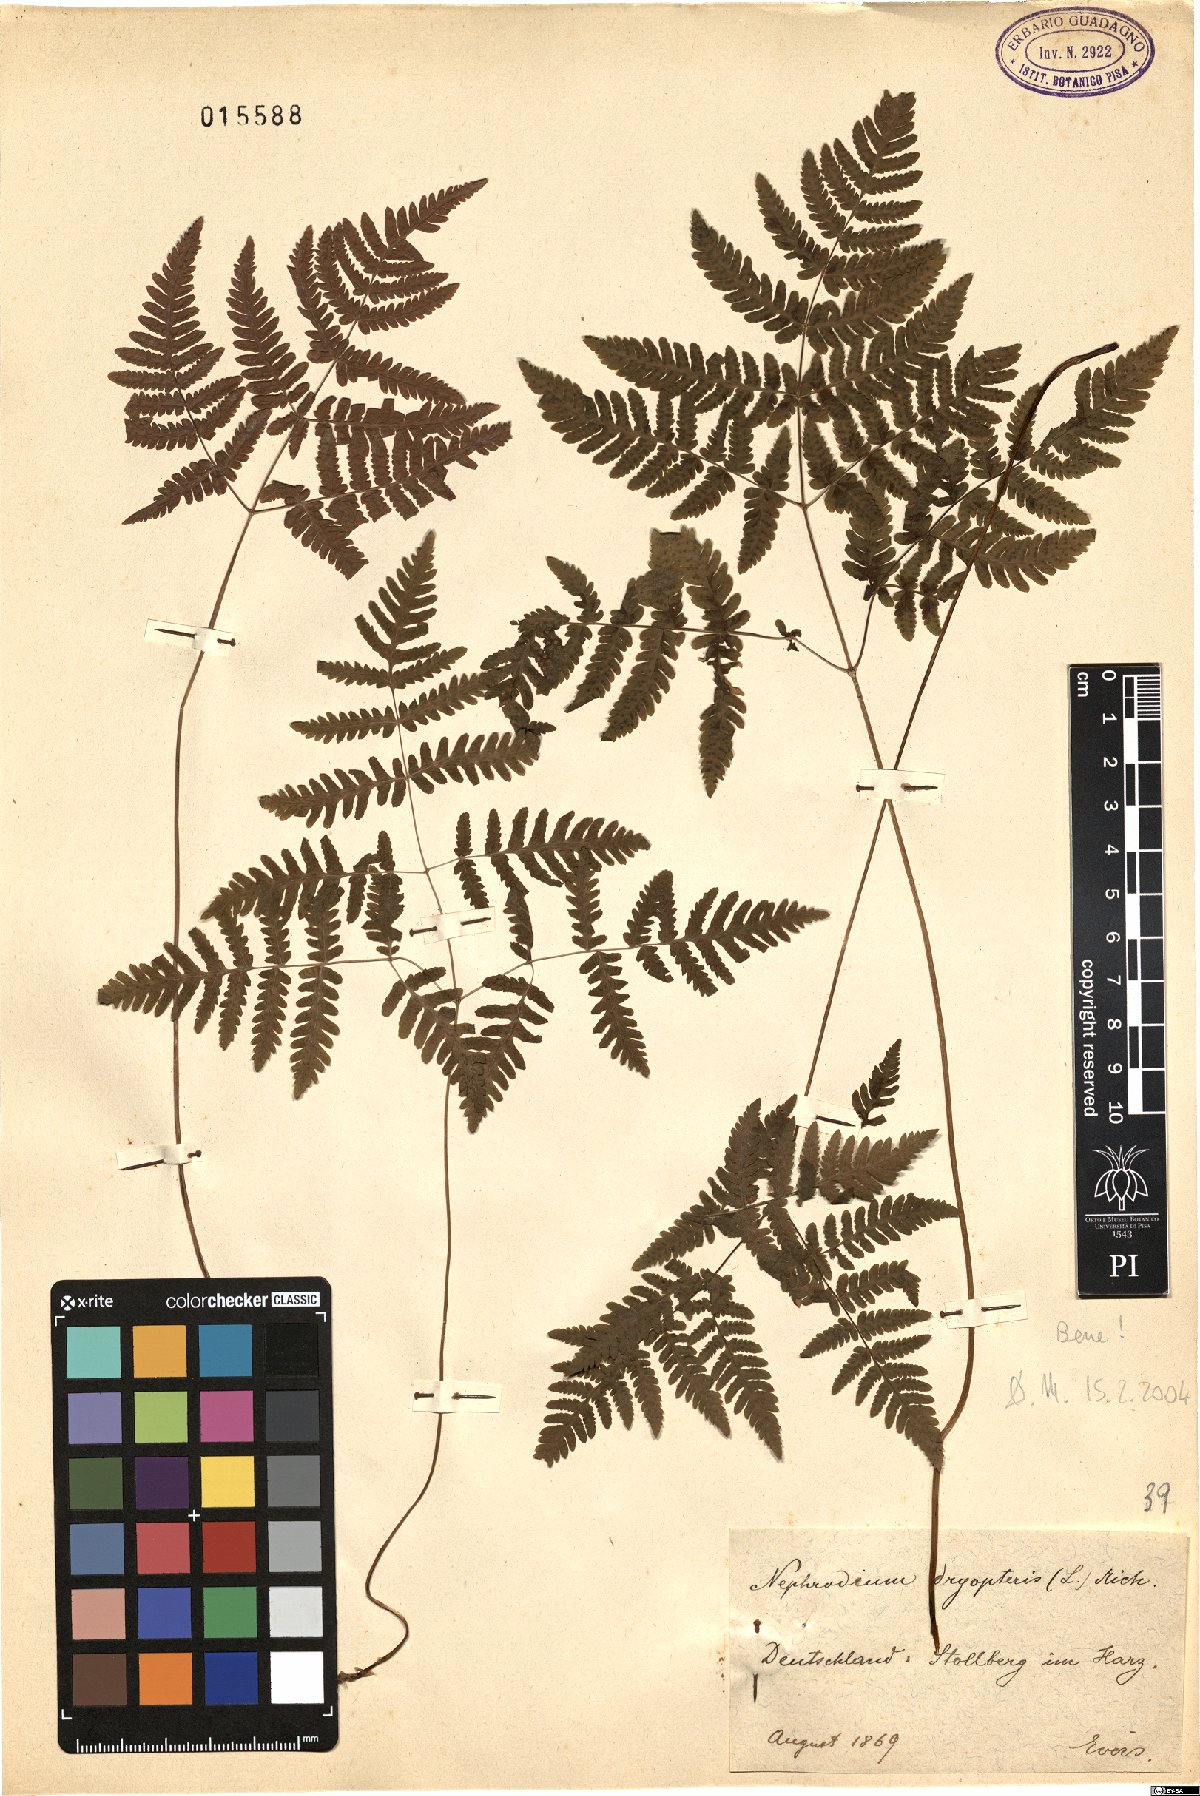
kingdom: Plantae
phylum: Tracheophyta
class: Polypodiopsida
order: Polypodiales
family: Cystopteridaceae
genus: Gymnocarpium
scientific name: Gymnocarpium dryopteris
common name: Oak fern
